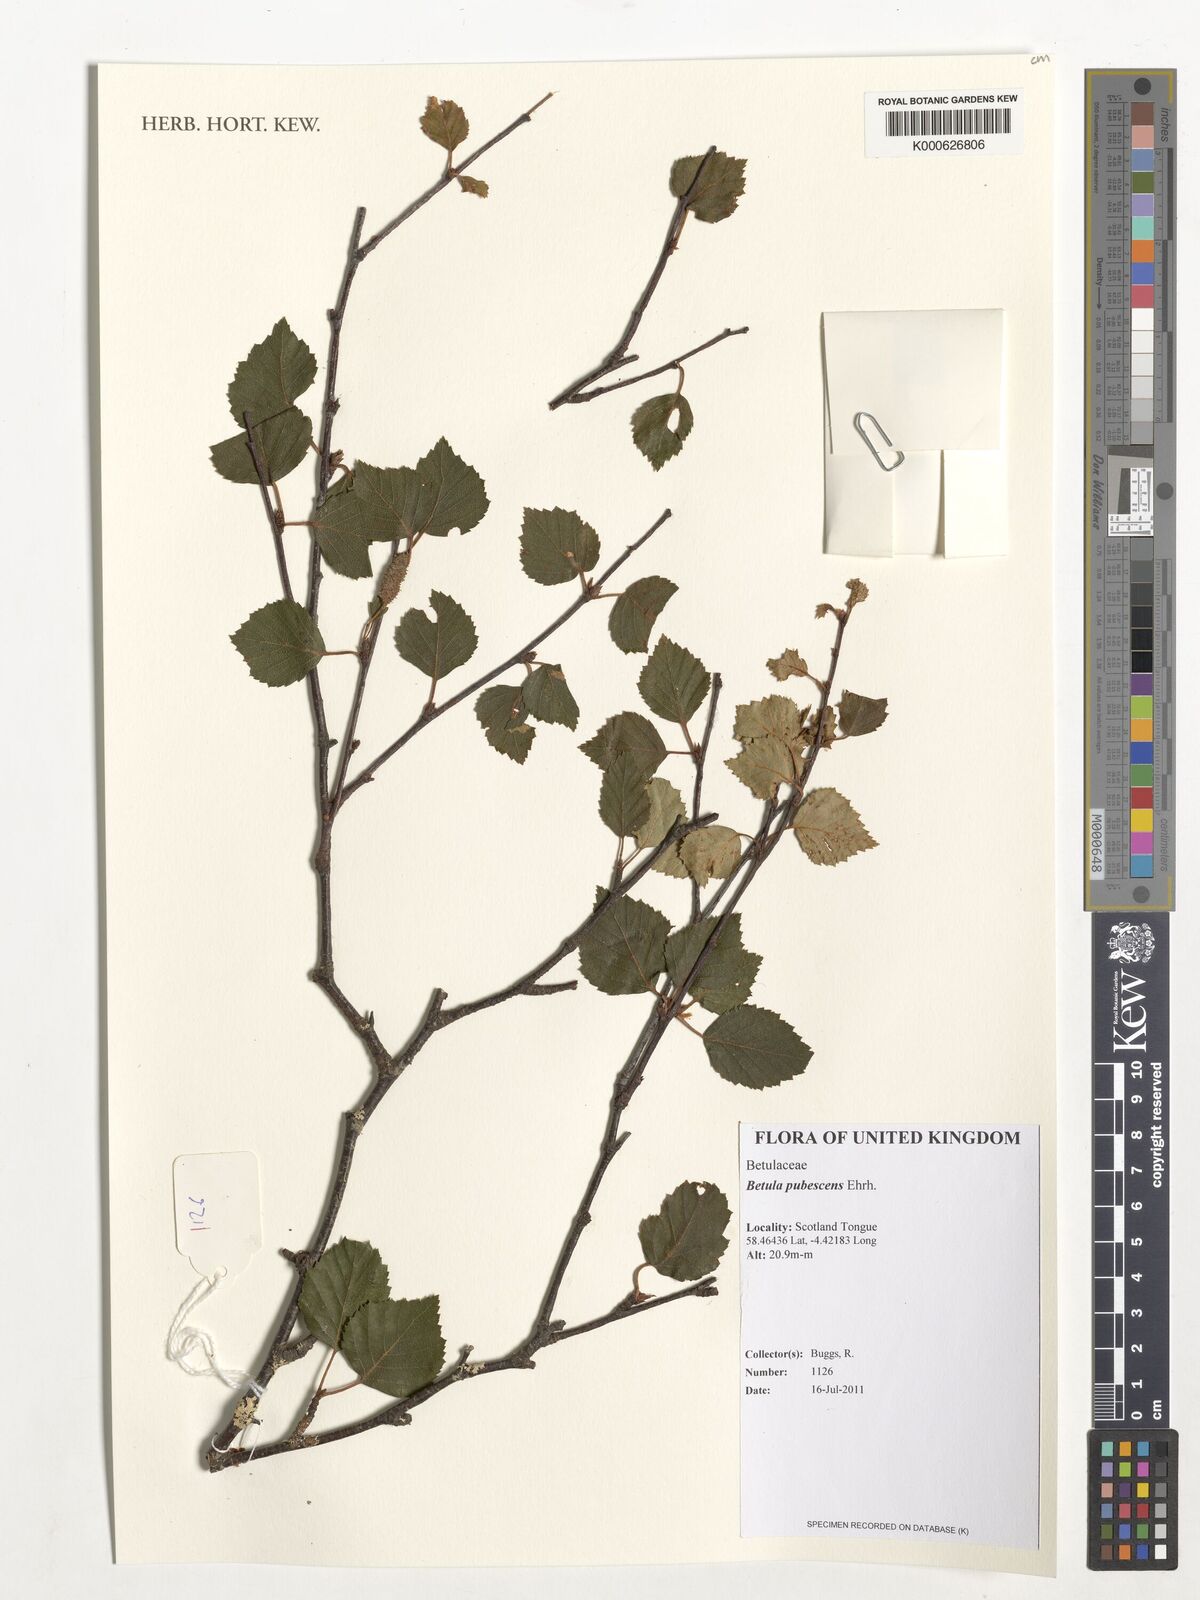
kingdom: Plantae
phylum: Tracheophyta
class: Magnoliopsida
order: Fagales
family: Betulaceae
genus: Betula
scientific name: Betula pubescens
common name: Downy birch
